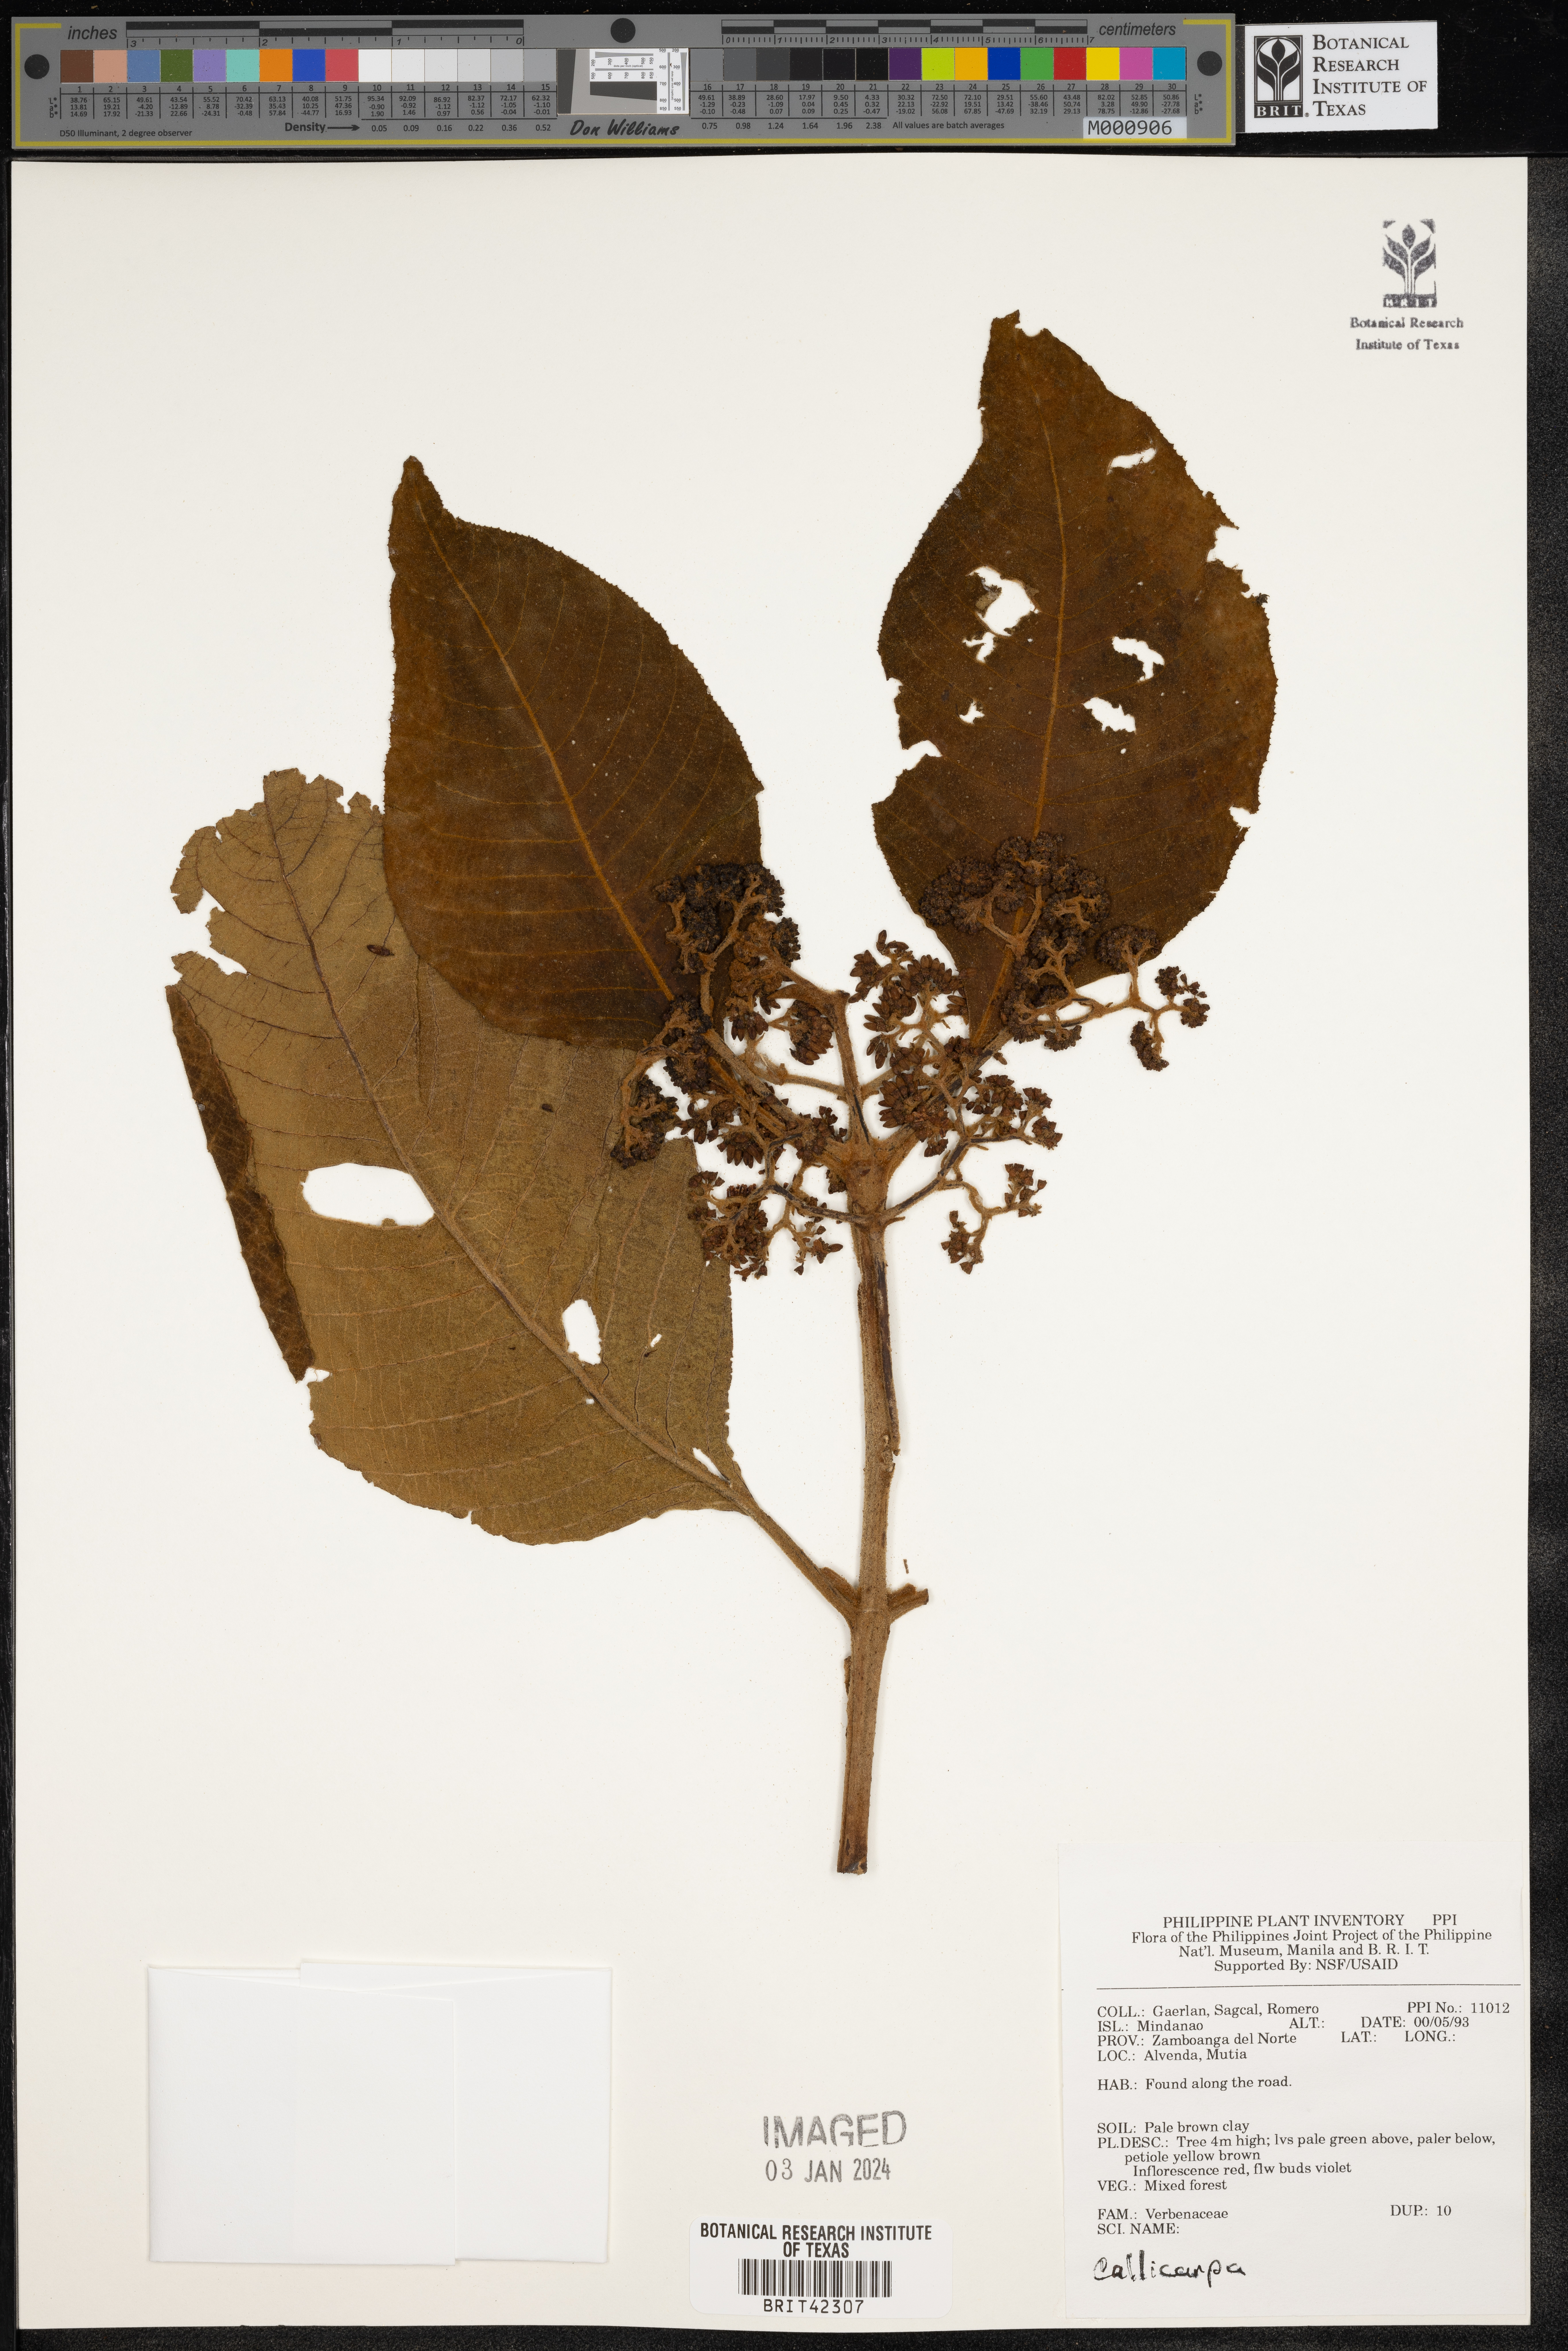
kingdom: Plantae
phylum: Tracheophyta
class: Magnoliopsida
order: Lamiales
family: Lamiaceae
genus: Callicarpa
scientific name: Callicarpa
